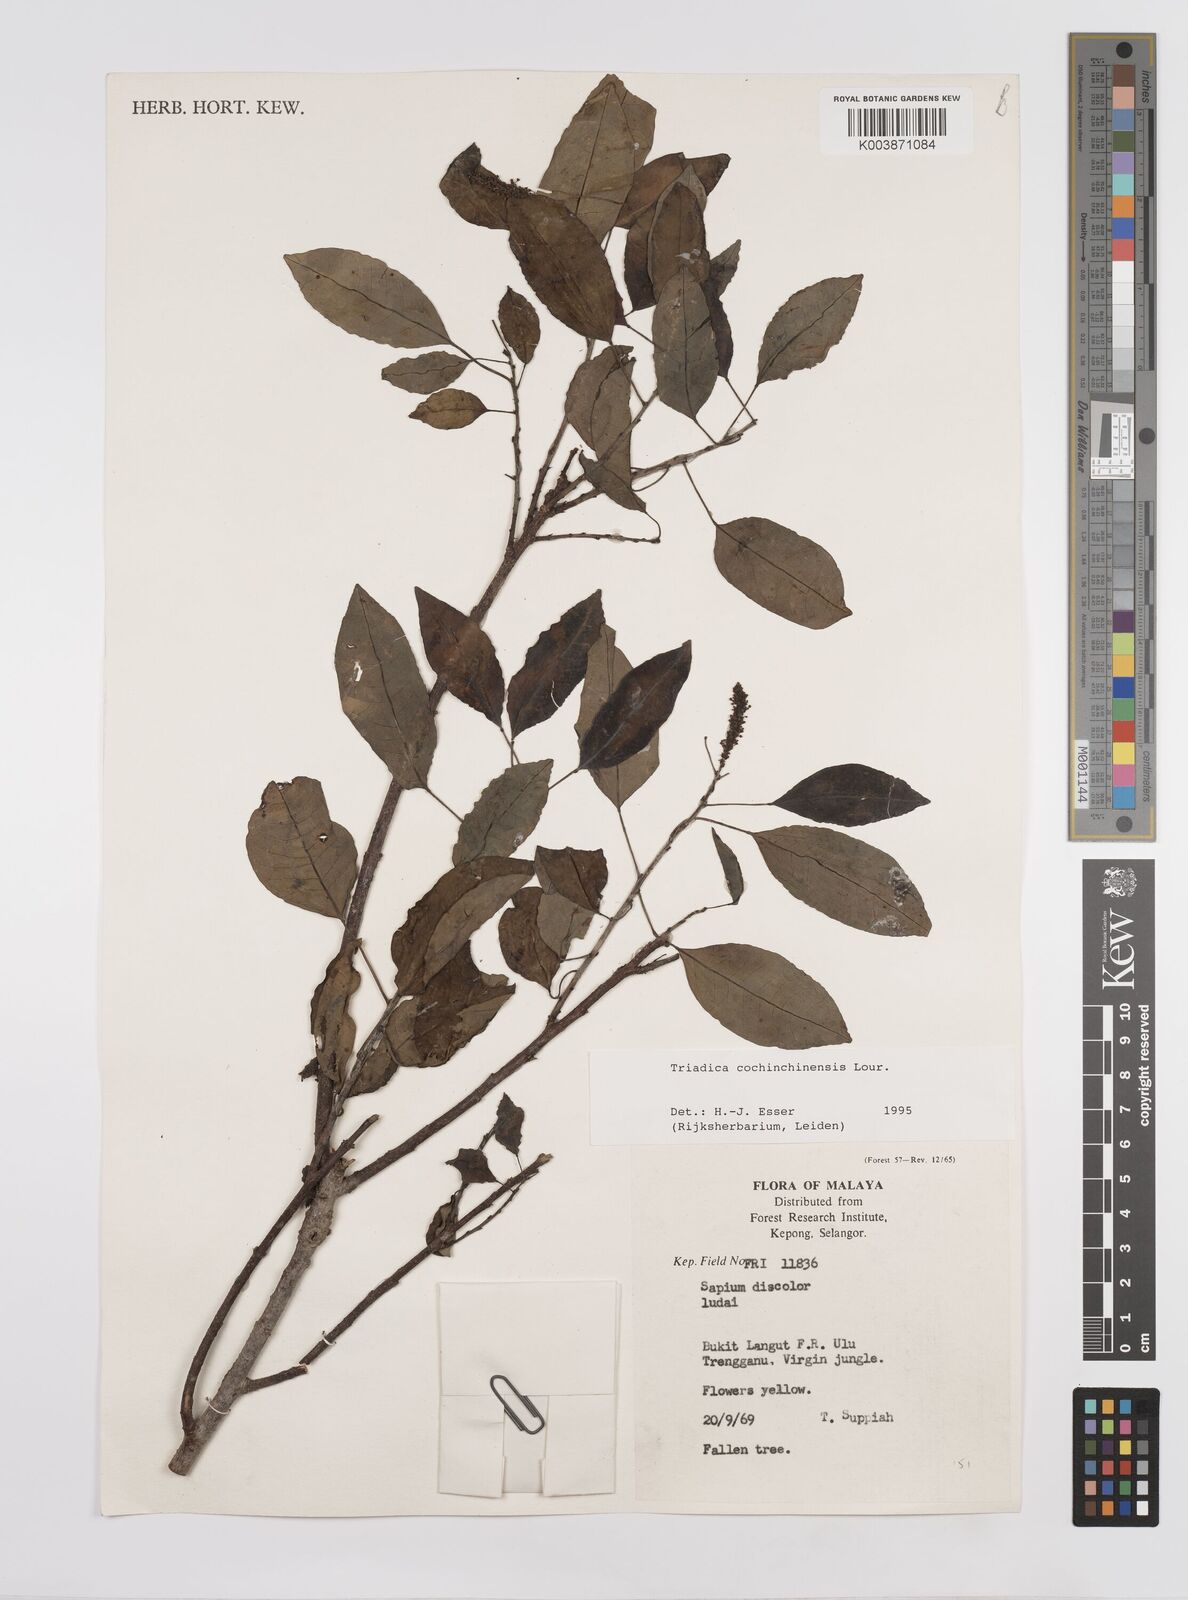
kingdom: Plantae
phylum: Tracheophyta
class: Magnoliopsida
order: Malpighiales
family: Euphorbiaceae
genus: Triadica
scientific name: Triadica cochinchinensis
